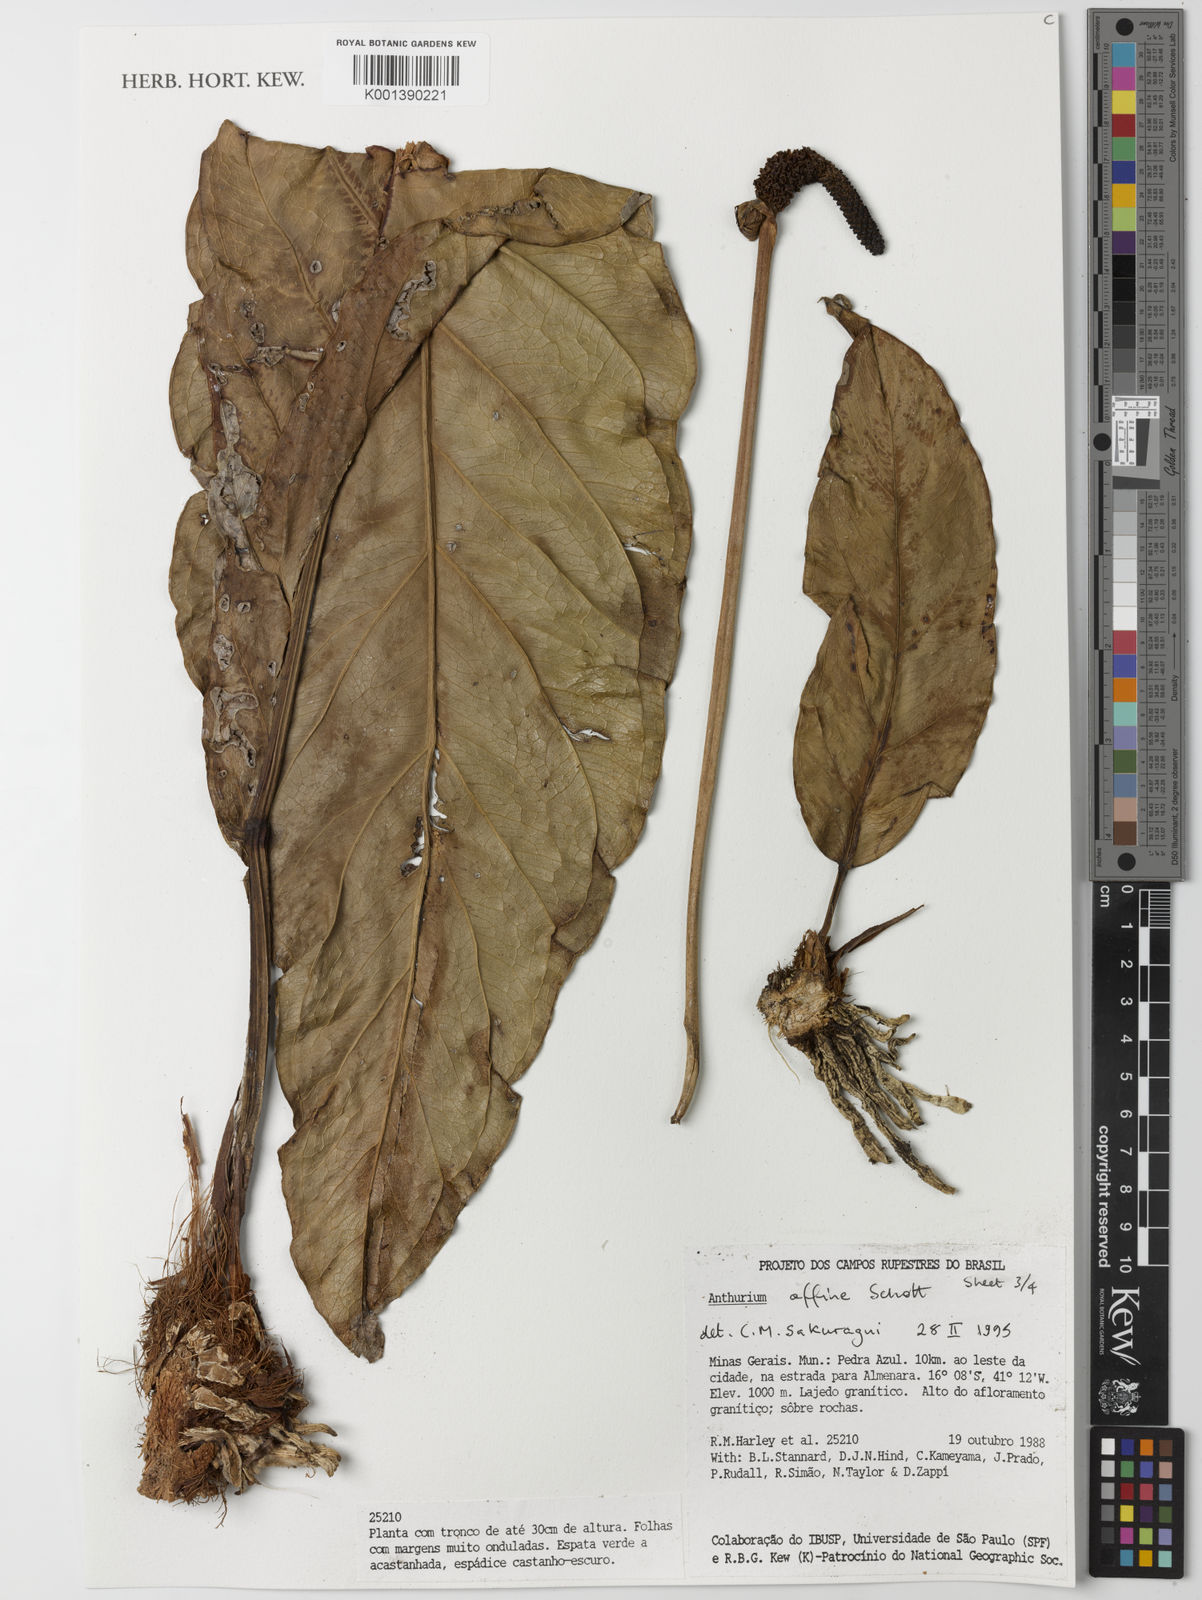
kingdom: Plantae
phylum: Tracheophyta
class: Liliopsida
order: Alismatales
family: Araceae
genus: Anthurium
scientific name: Anthurium affine
